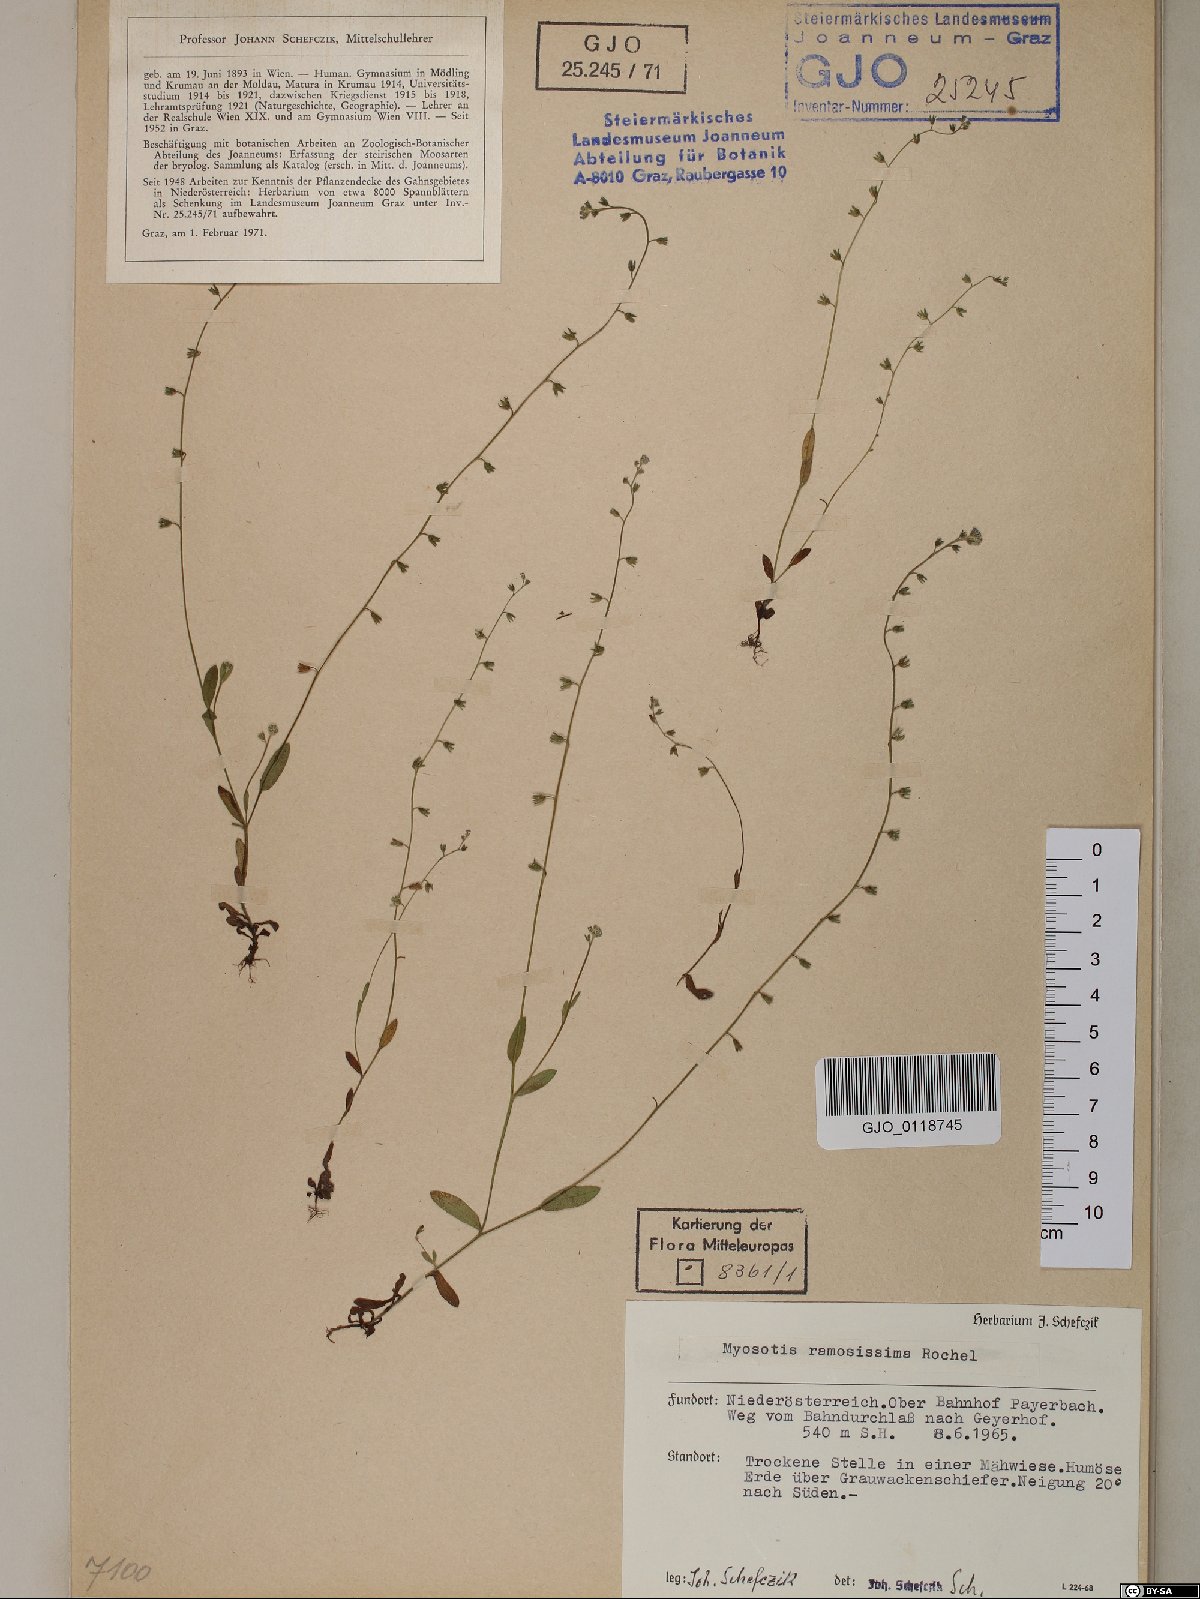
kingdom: Plantae
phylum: Tracheophyta
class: Magnoliopsida
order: Boraginales
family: Boraginaceae
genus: Myosotis
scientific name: Myosotis ramosissima
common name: Early forget-me-not
